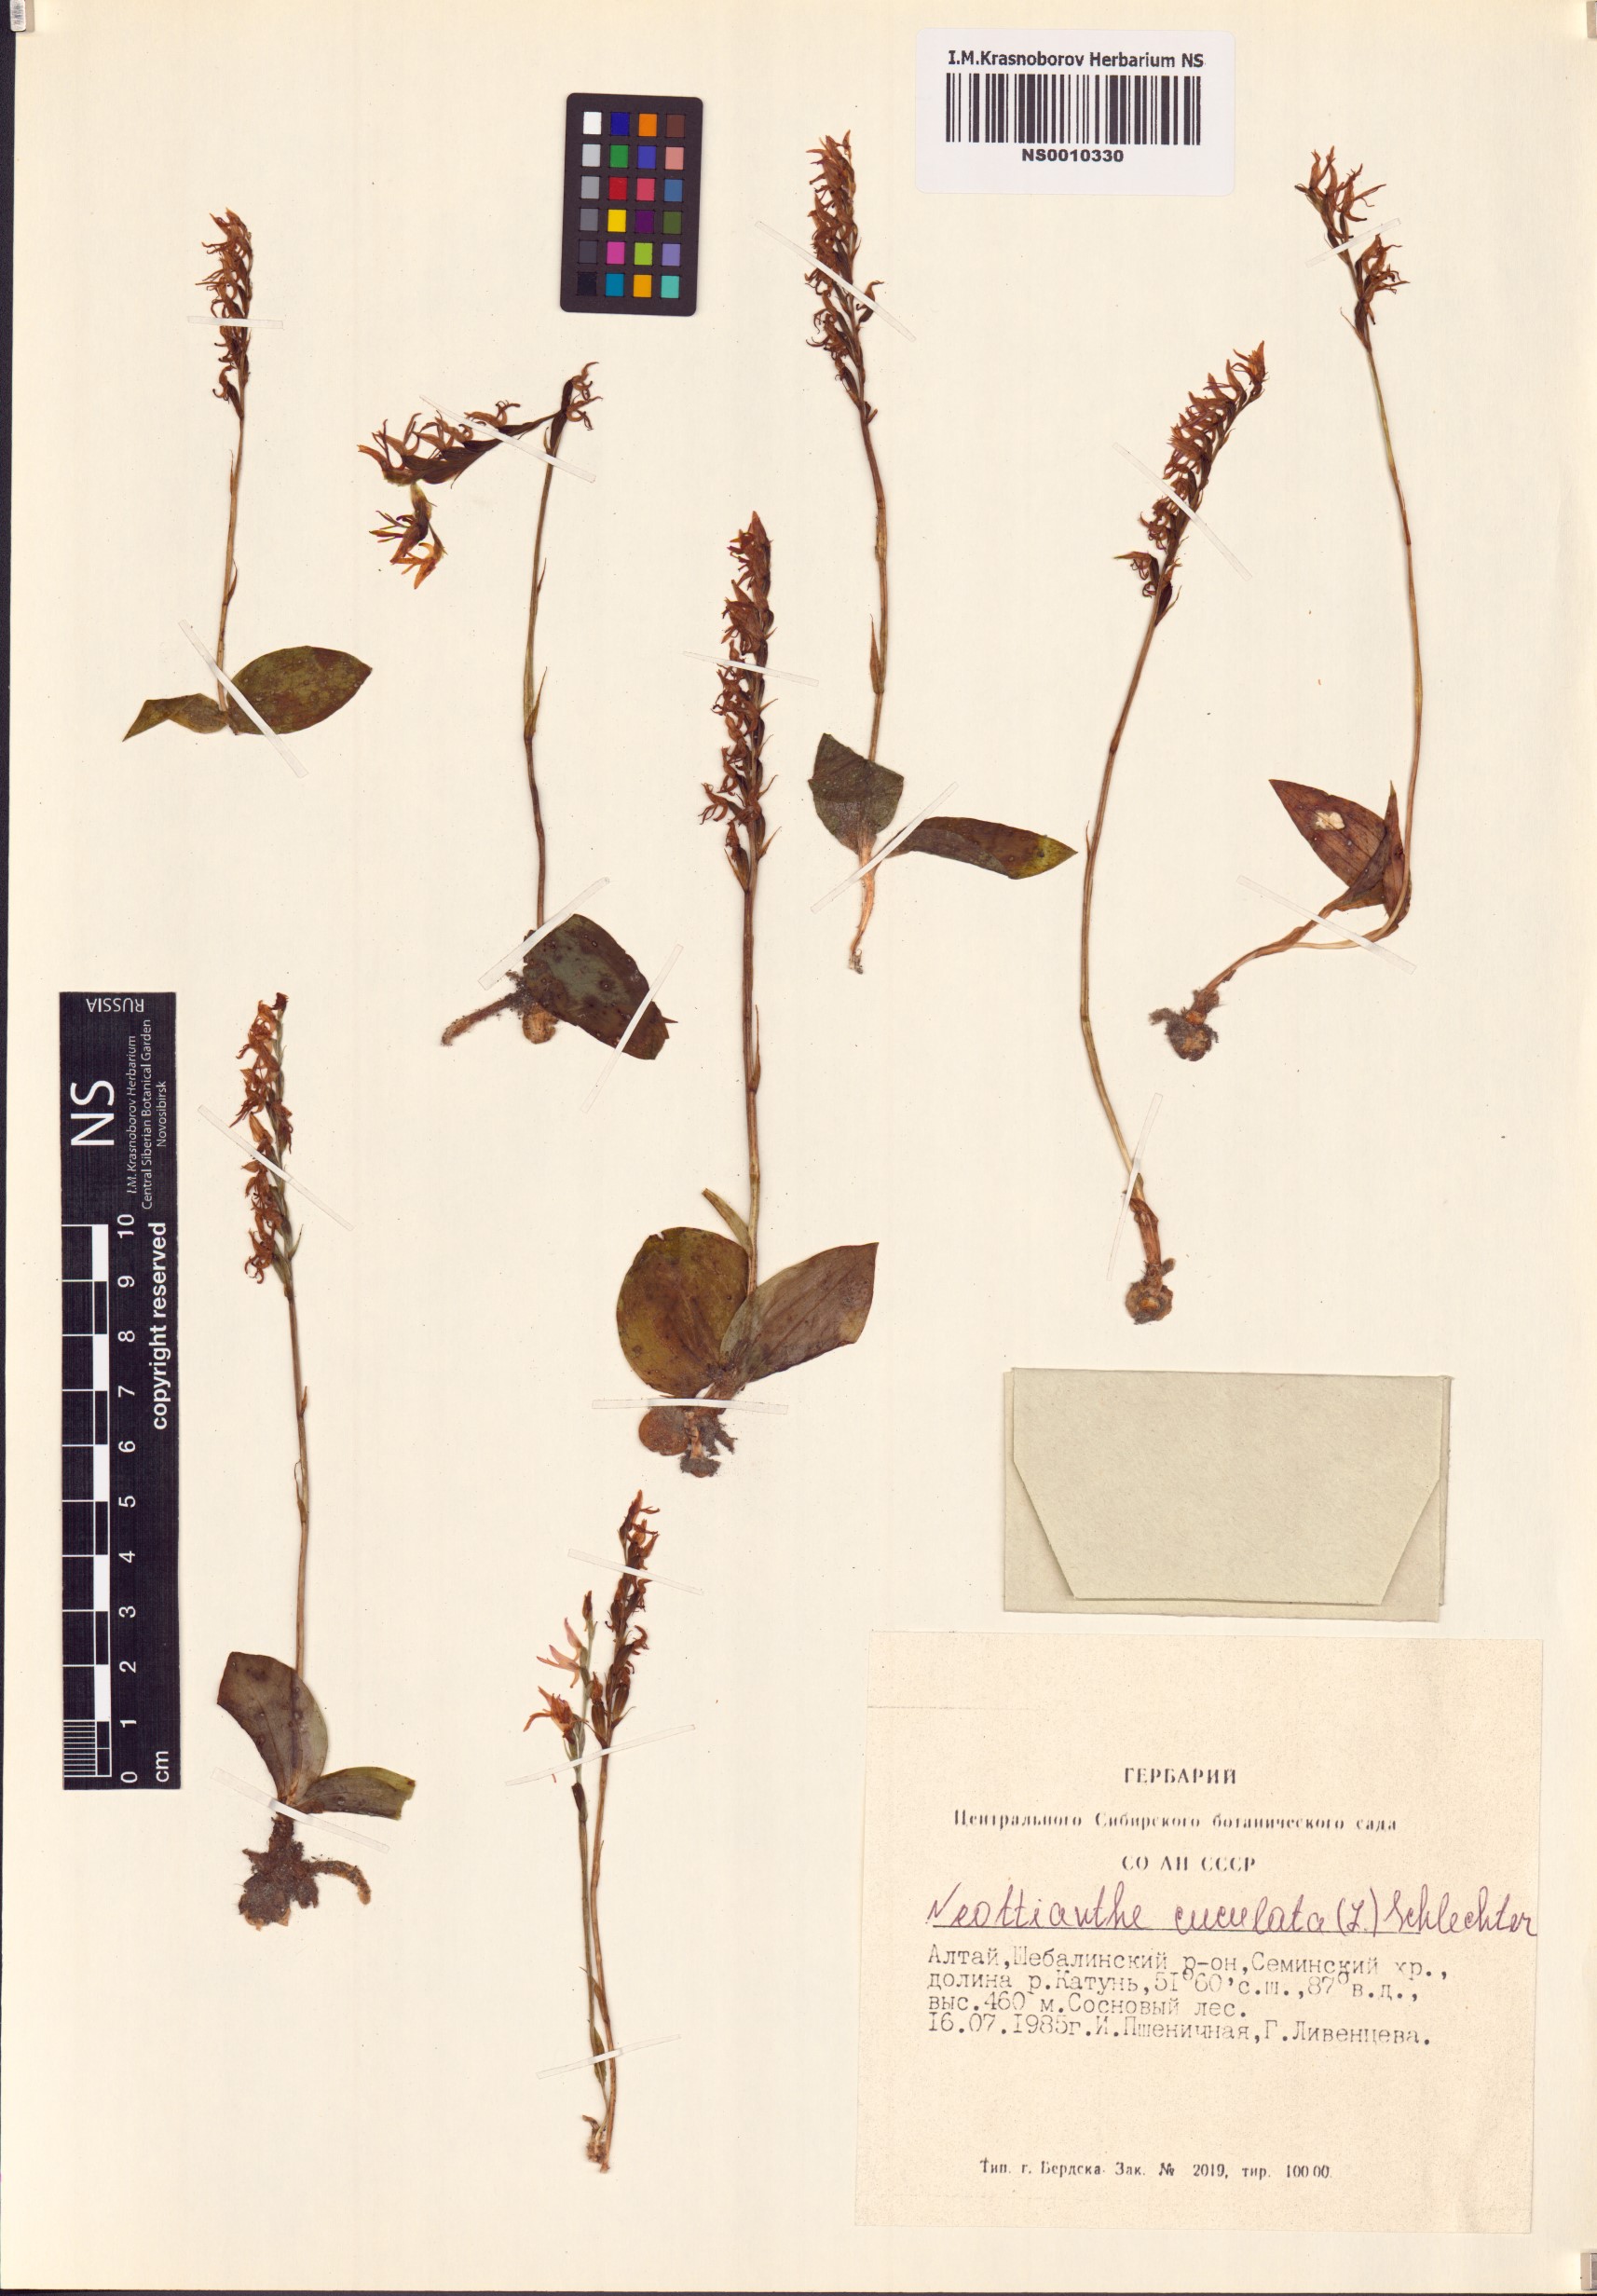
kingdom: Plantae
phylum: Tracheophyta
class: Liliopsida
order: Asparagales
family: Orchidaceae
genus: Hemipilia
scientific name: Hemipilia cucullata
